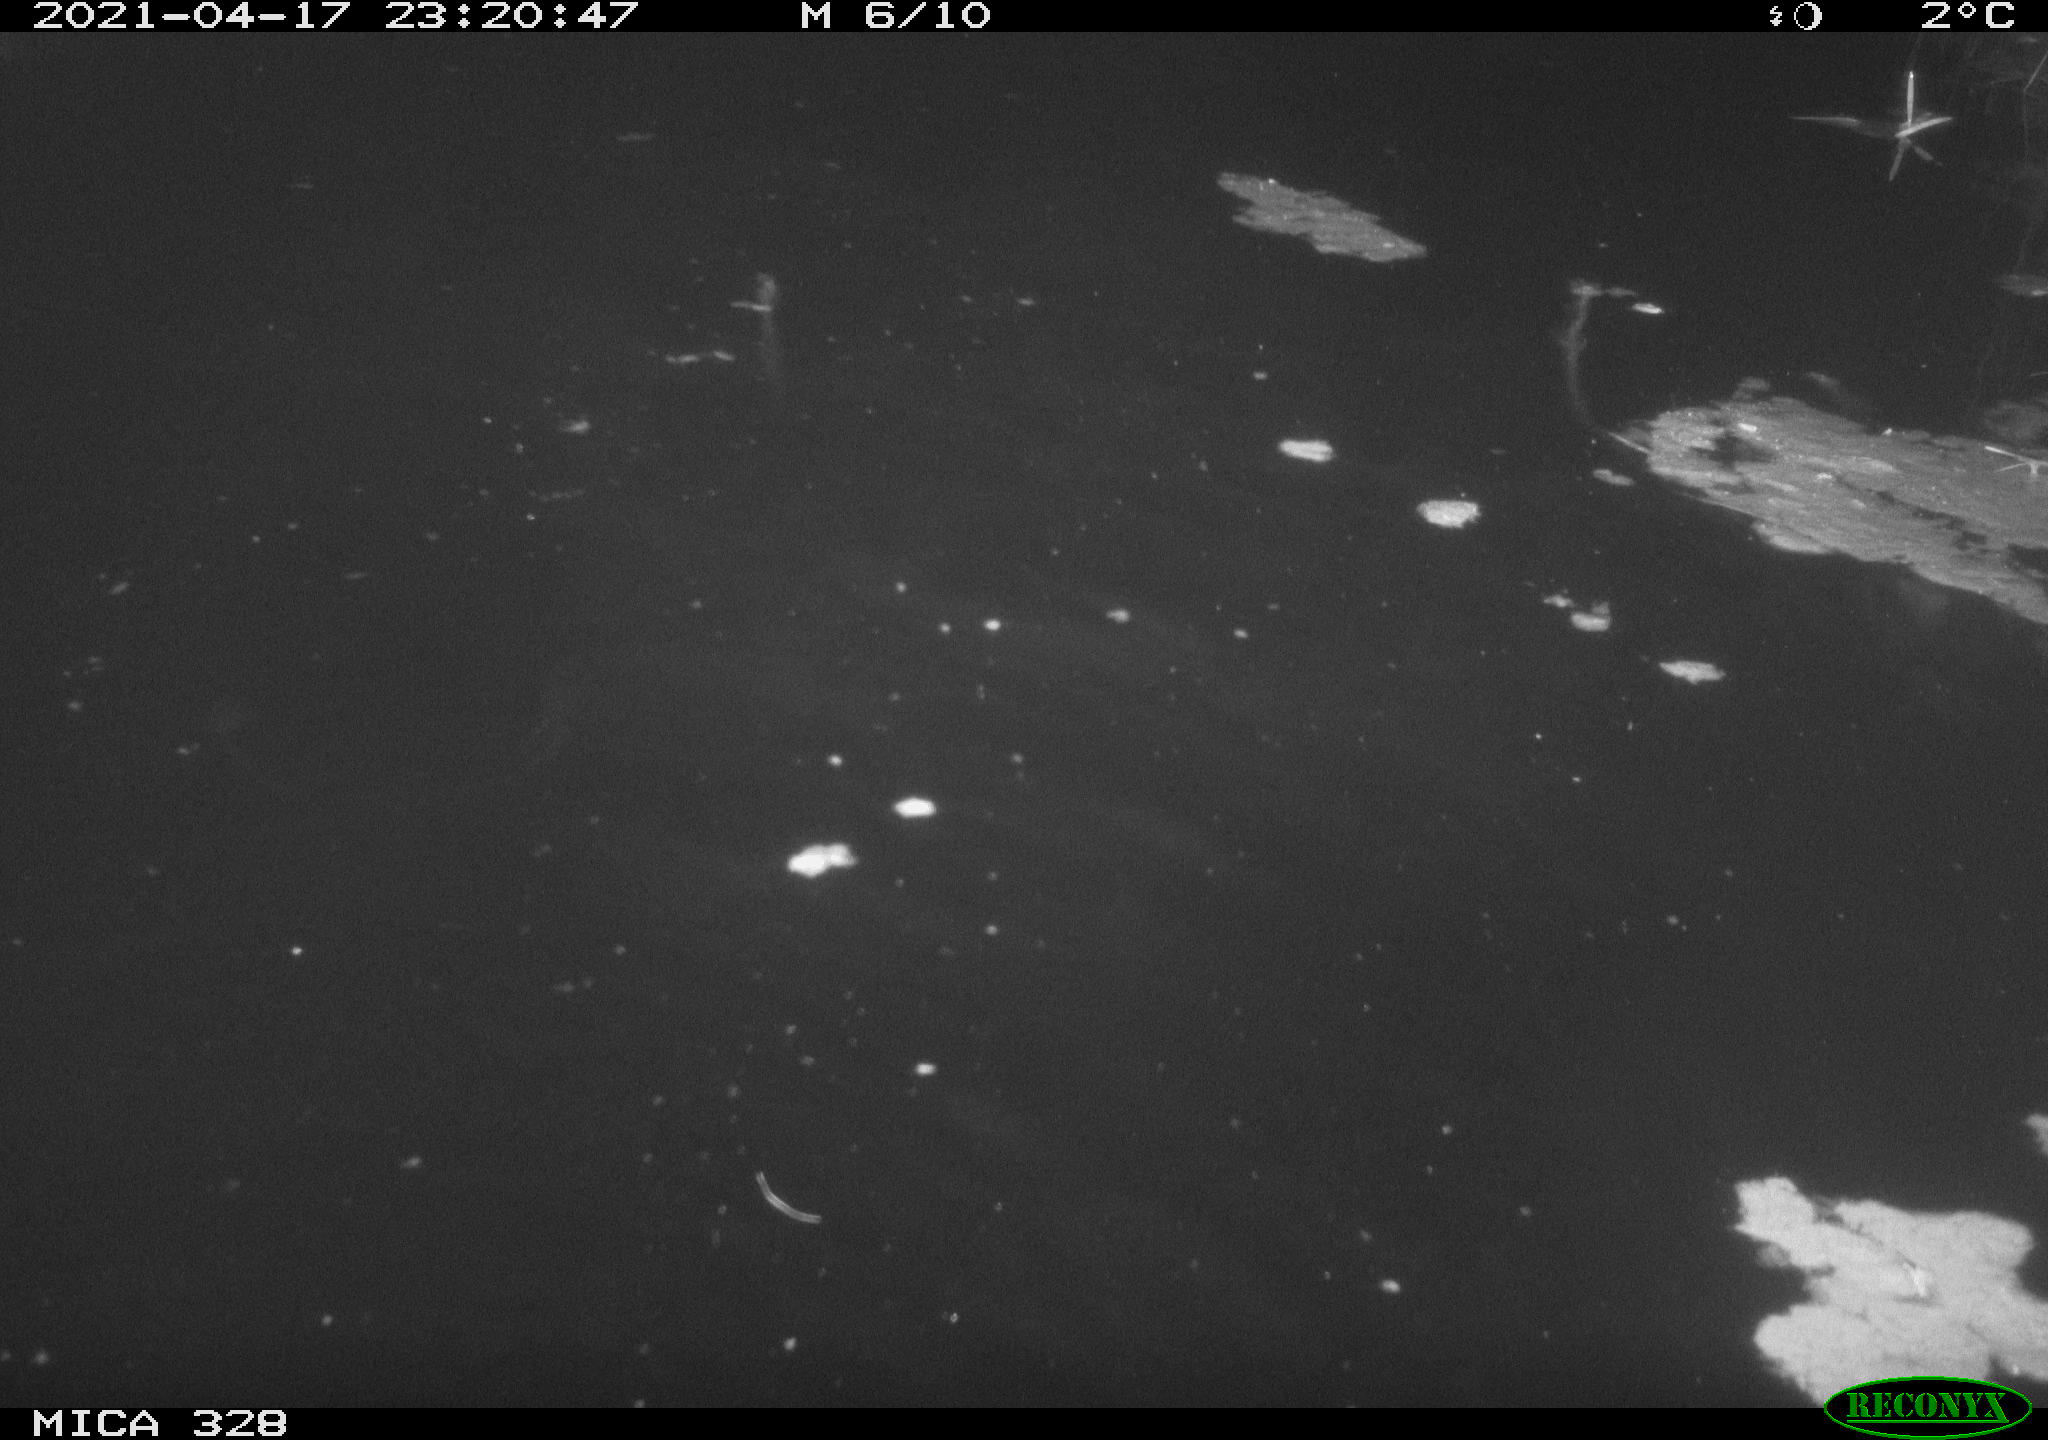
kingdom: Animalia
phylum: Chordata
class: Mammalia
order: Rodentia
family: Cricetidae
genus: Ondatra
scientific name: Ondatra zibethicus
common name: Muskrat
